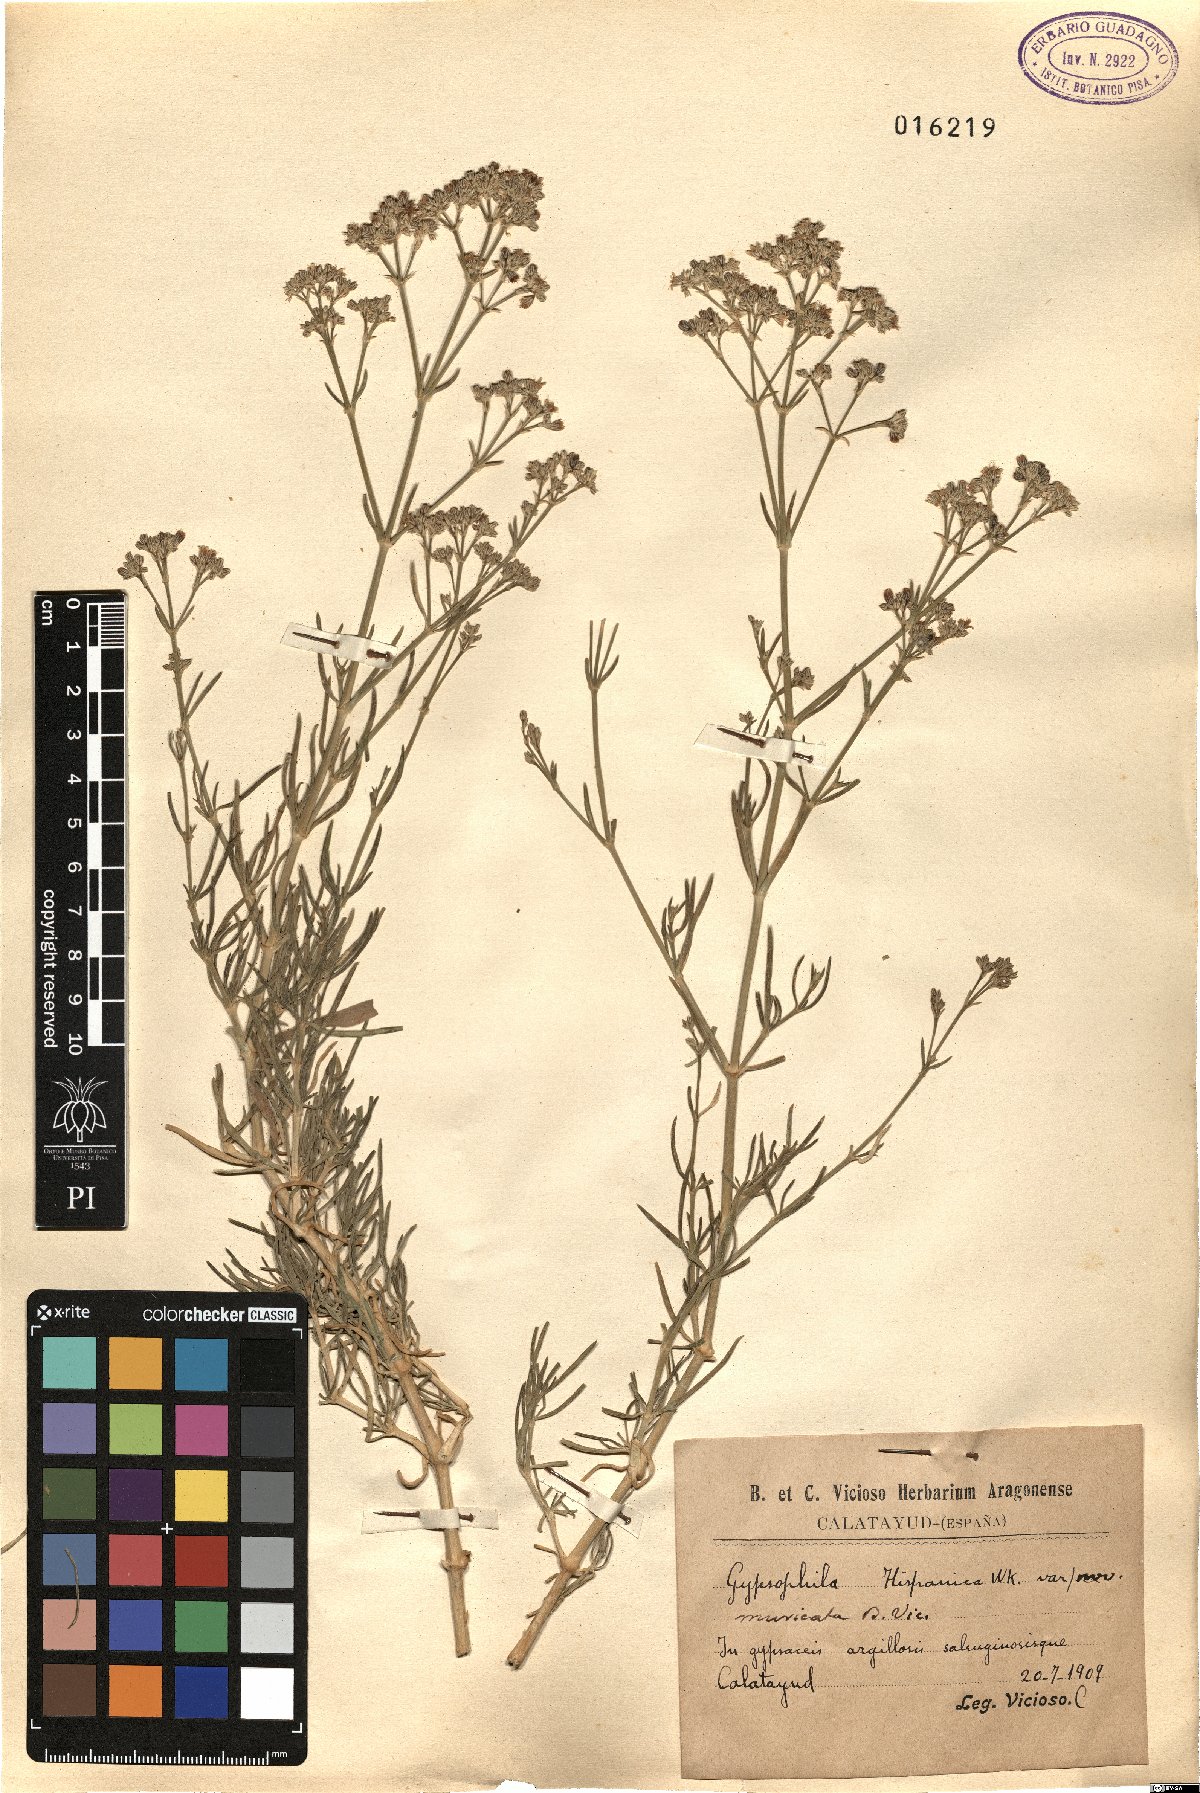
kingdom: Plantae
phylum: Tracheophyta
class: Magnoliopsida
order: Caryophyllales
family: Caryophyllaceae
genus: Gypsophila
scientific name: Gypsophila struthium
